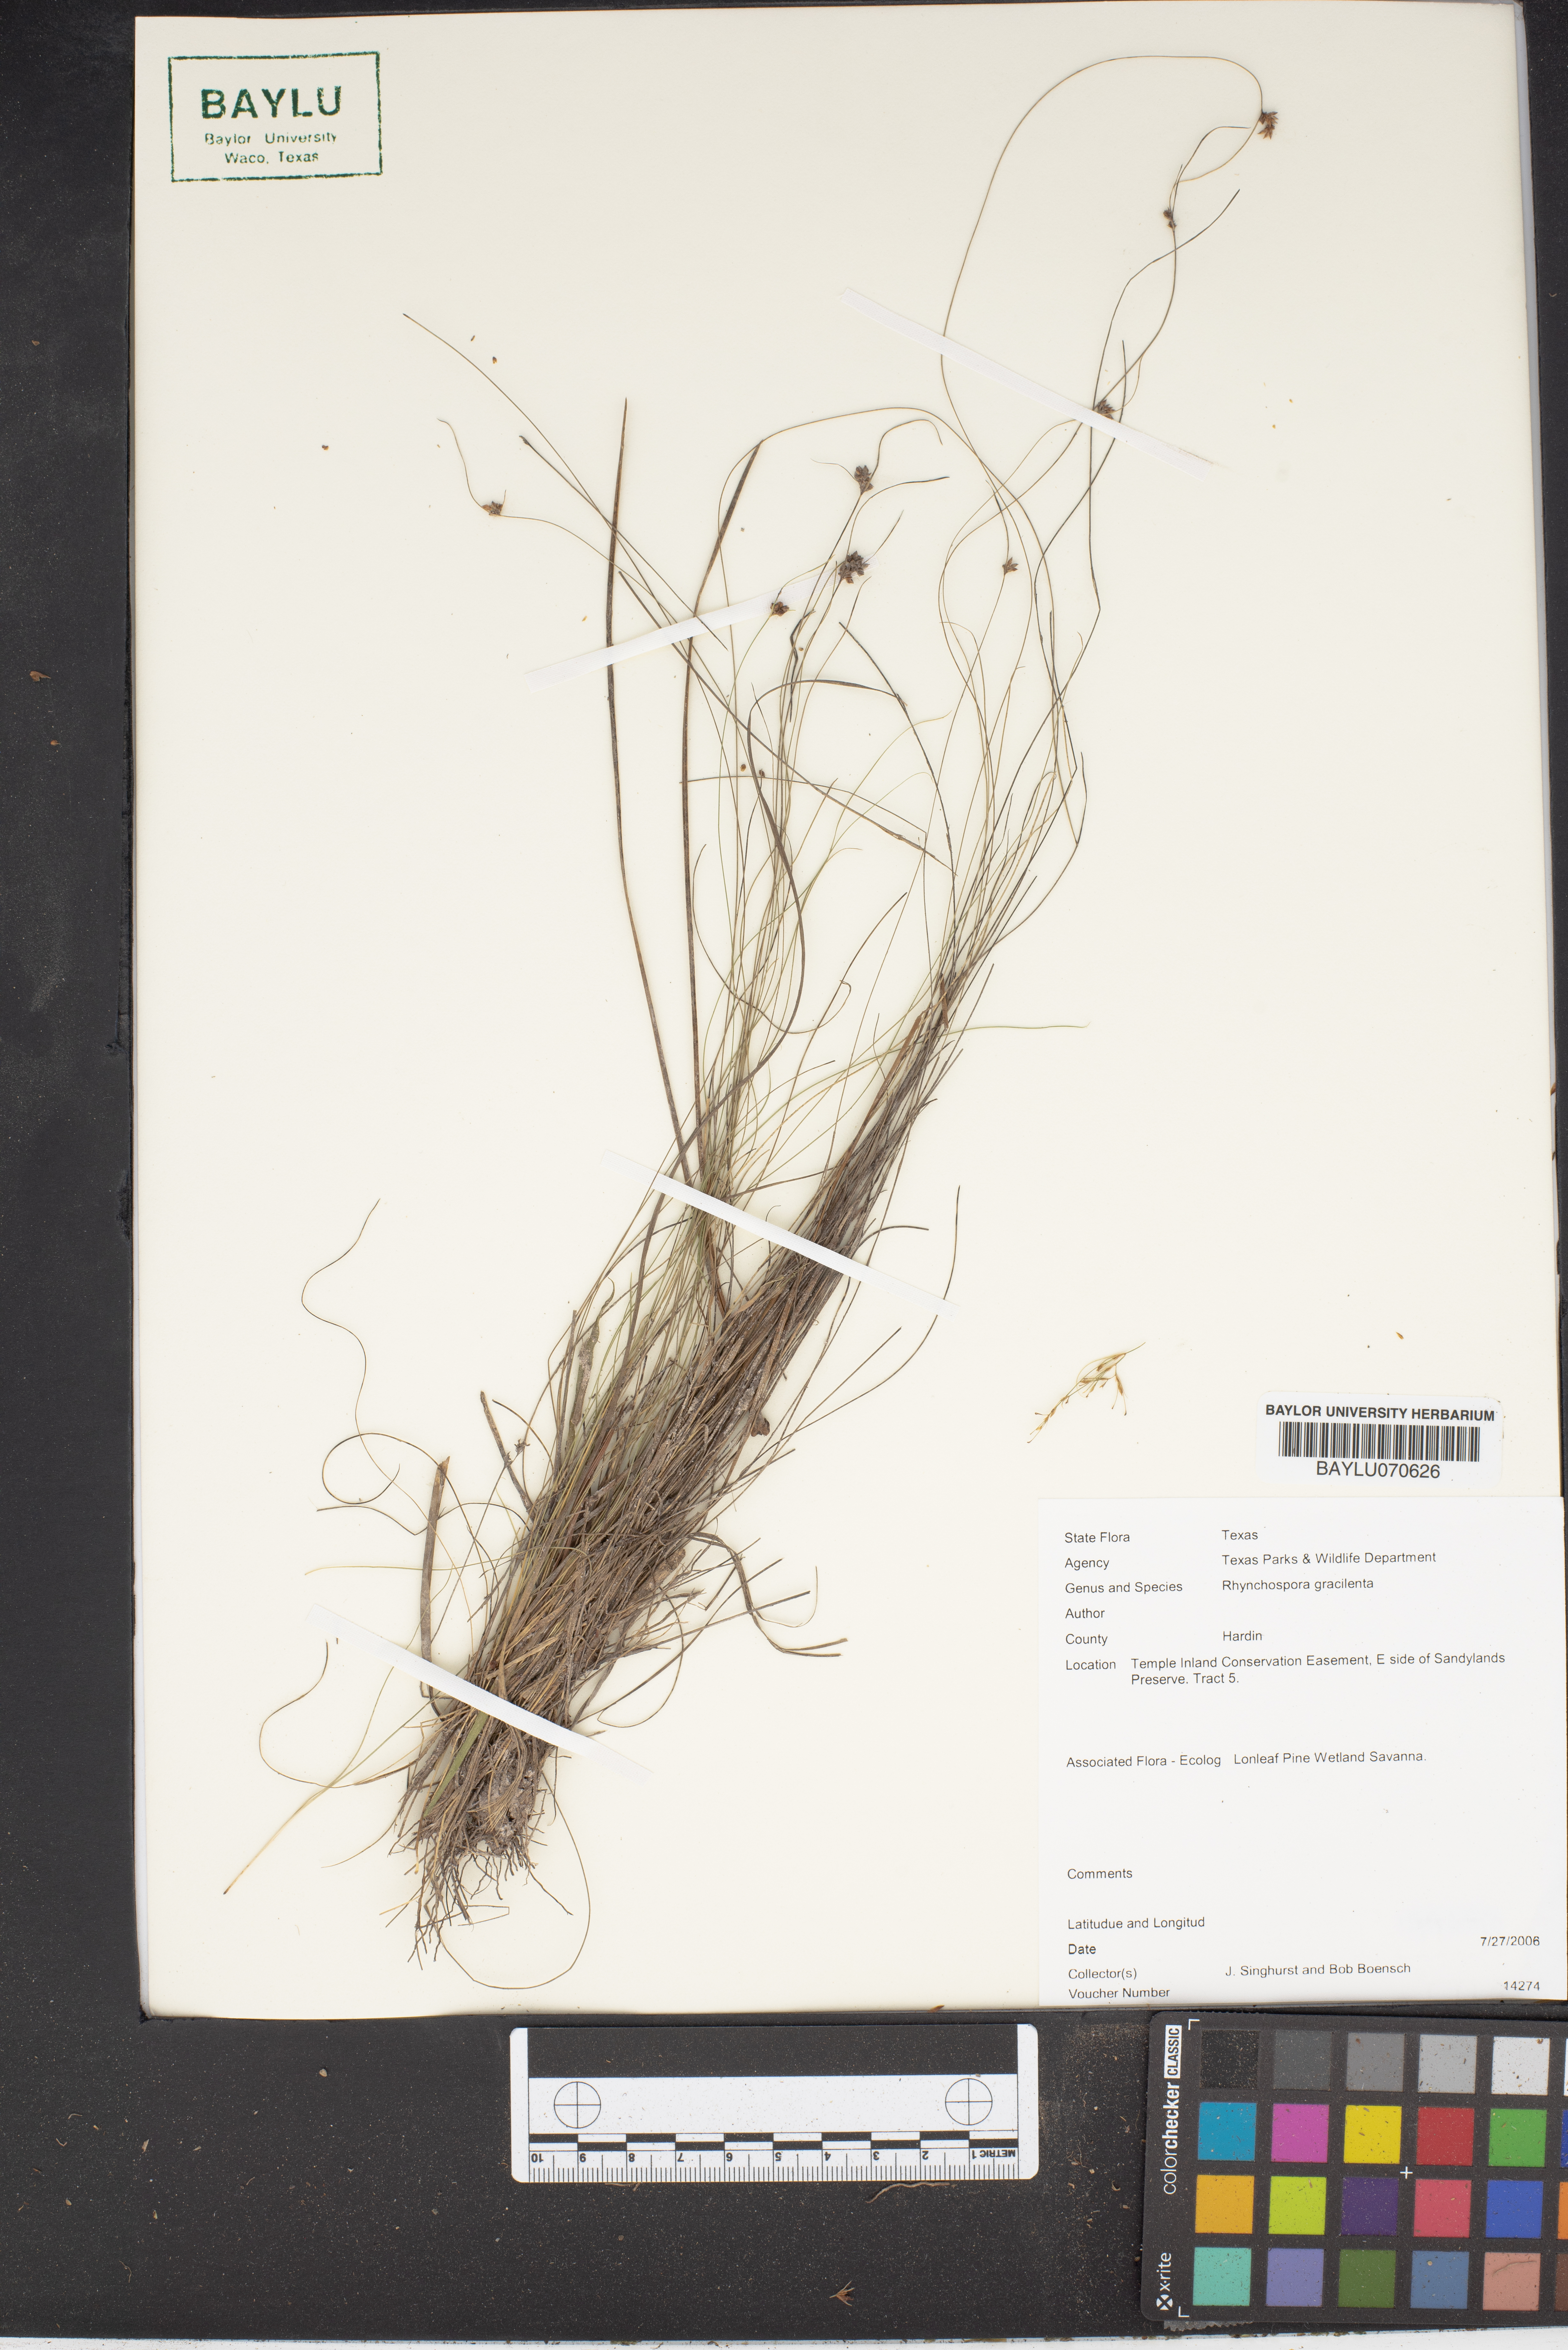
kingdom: Plantae
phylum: Tracheophyta
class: Liliopsida
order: Poales
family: Cyperaceae
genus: Rhynchospora
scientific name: Rhynchospora gracilenta
